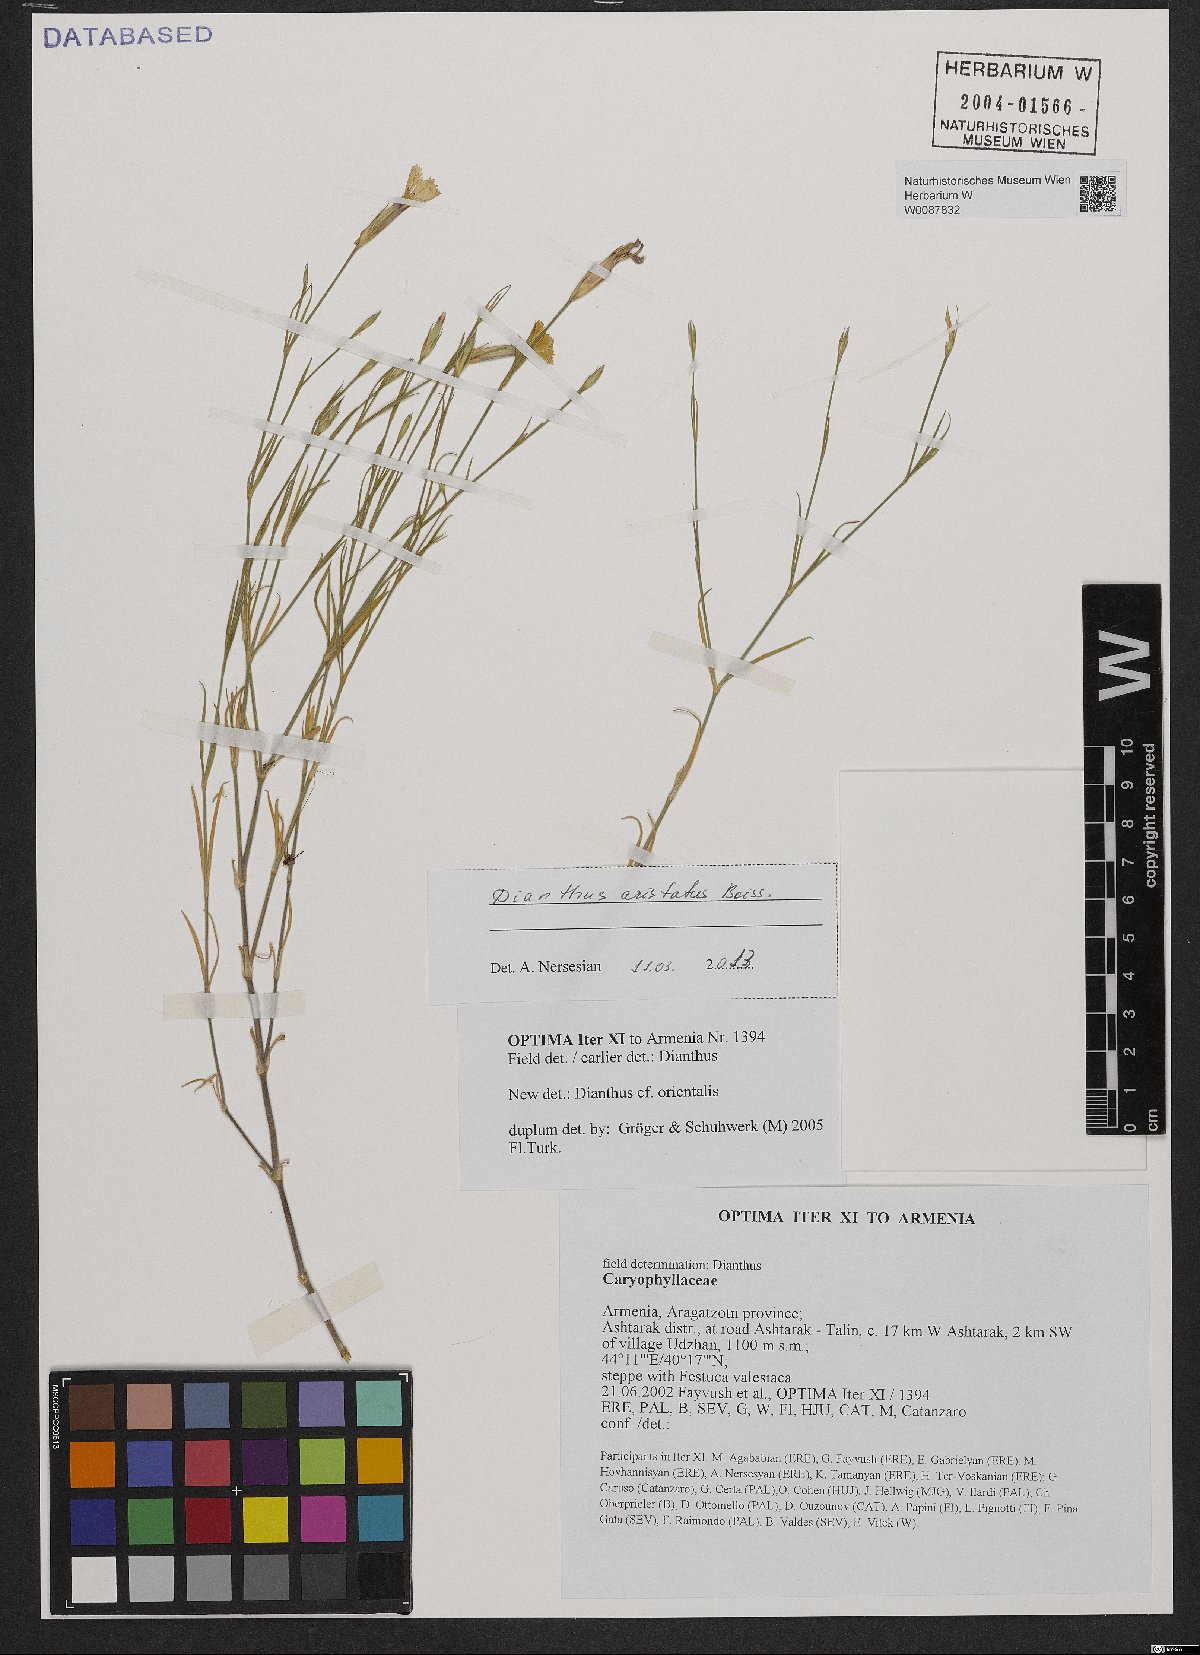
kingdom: Plantae
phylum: Tracheophyta
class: Magnoliopsida
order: Caryophyllales
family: Caryophyllaceae
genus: Dianthus
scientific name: Dianthus aristatus
